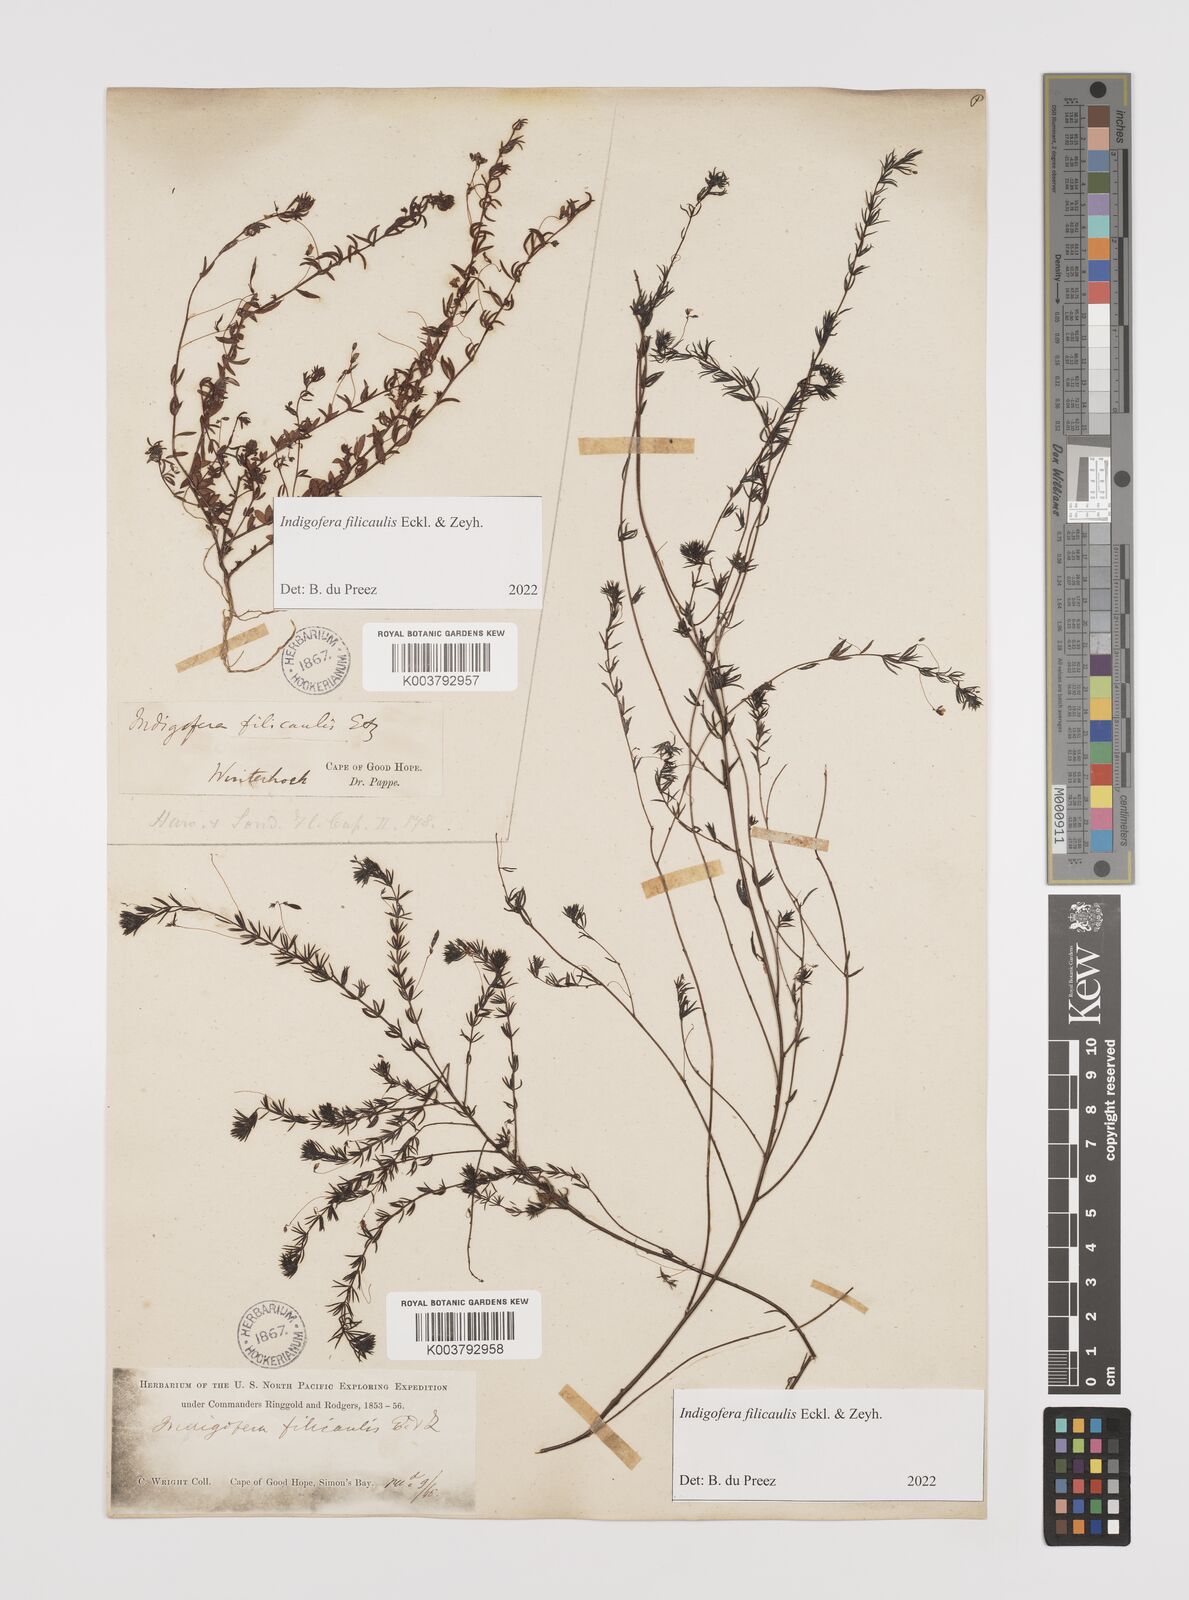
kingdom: Plantae
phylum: Tracheophyta
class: Magnoliopsida
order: Fabales
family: Fabaceae
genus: Indigofera
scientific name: Indigofera filicaulis
